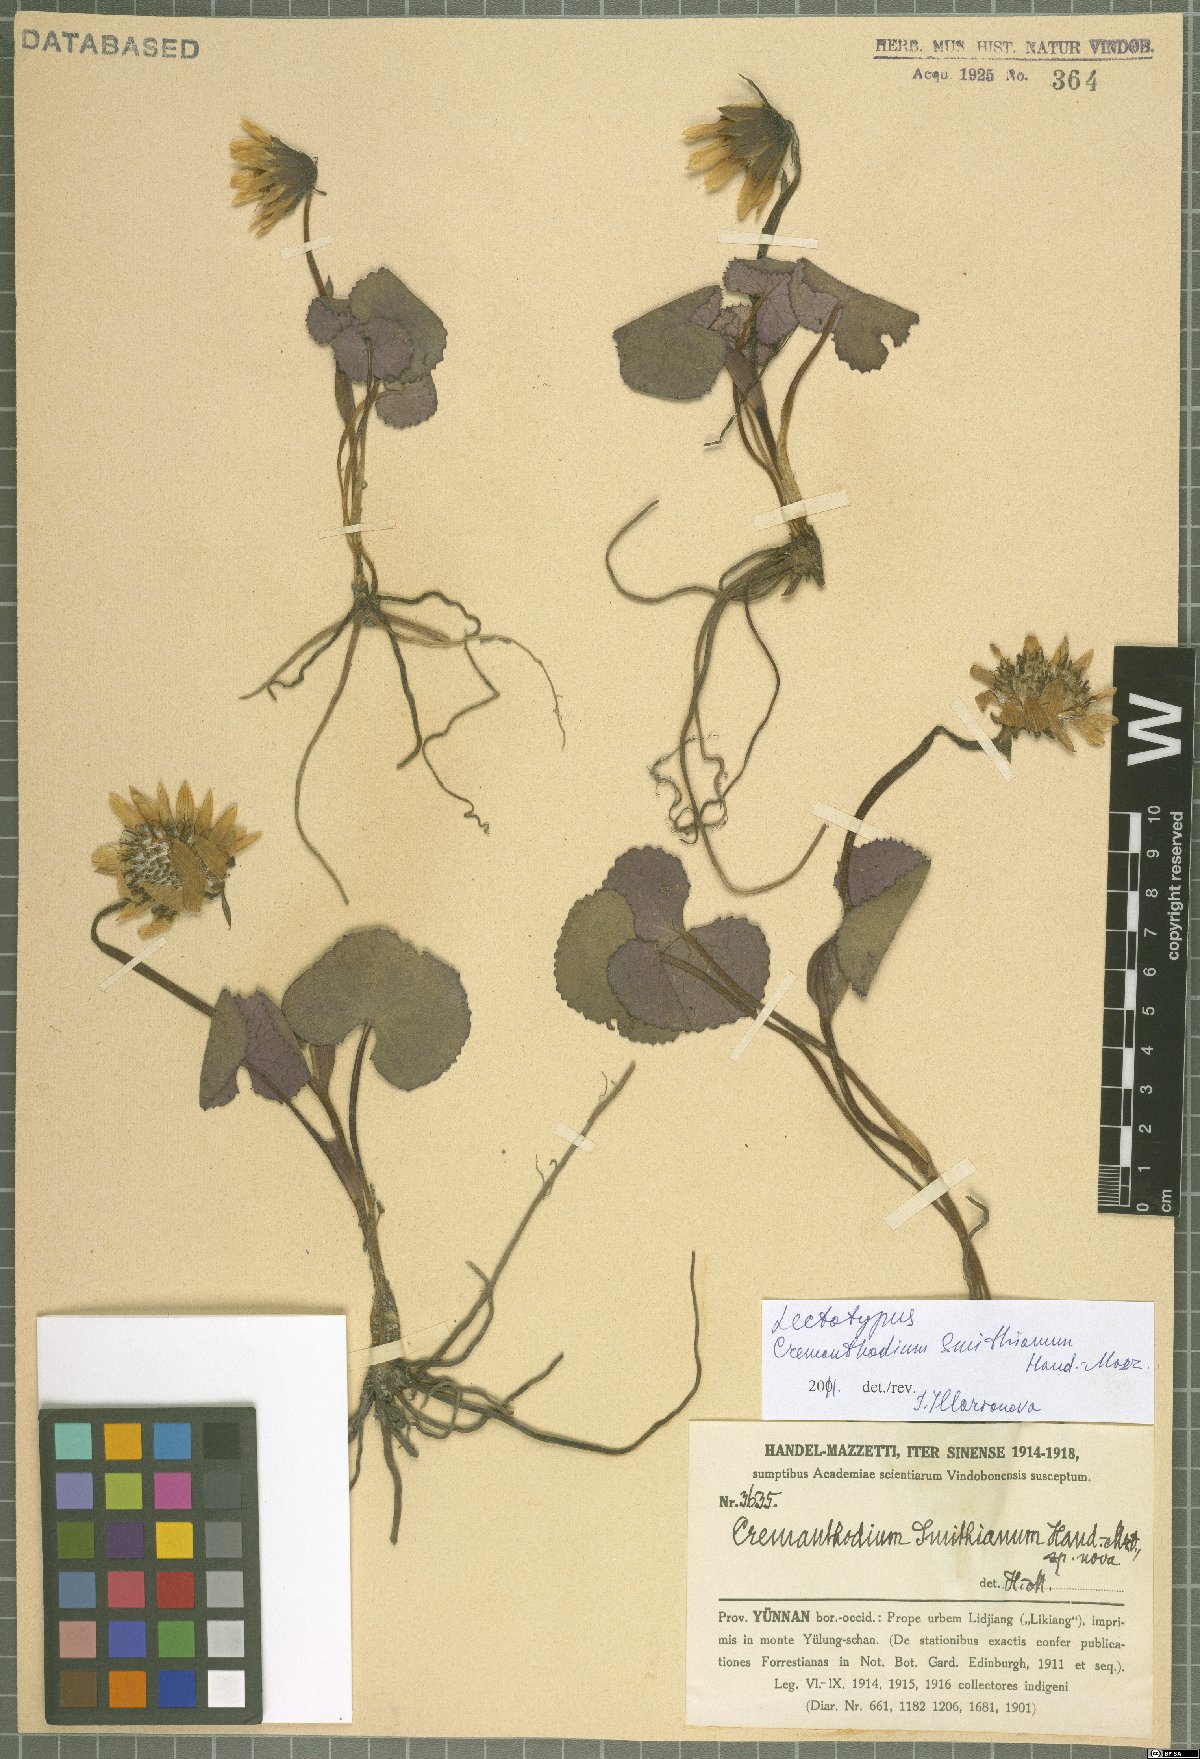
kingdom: Plantae
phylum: Tracheophyta
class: Magnoliopsida
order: Asterales
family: Asteraceae
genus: Cremanthodium
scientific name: Cremanthodium smithianum
